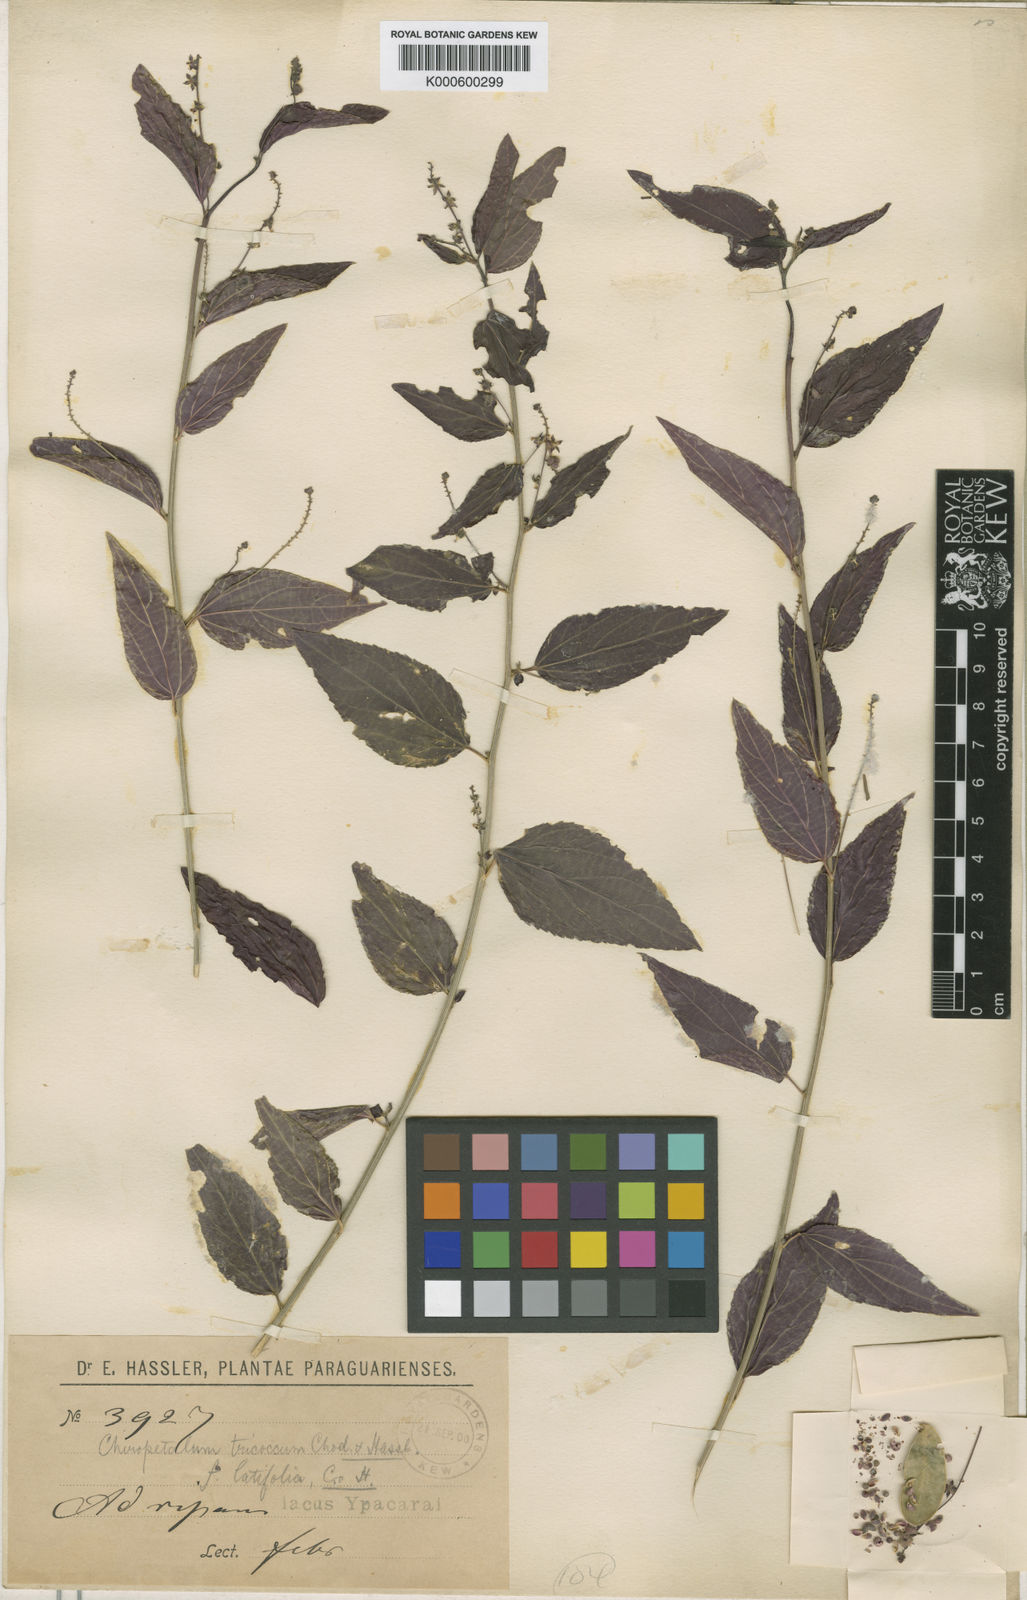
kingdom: Plantae
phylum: Tracheophyta
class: Magnoliopsida
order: Malpighiales
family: Euphorbiaceae
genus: Chiropetalum
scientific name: Chiropetalum tricoccum
